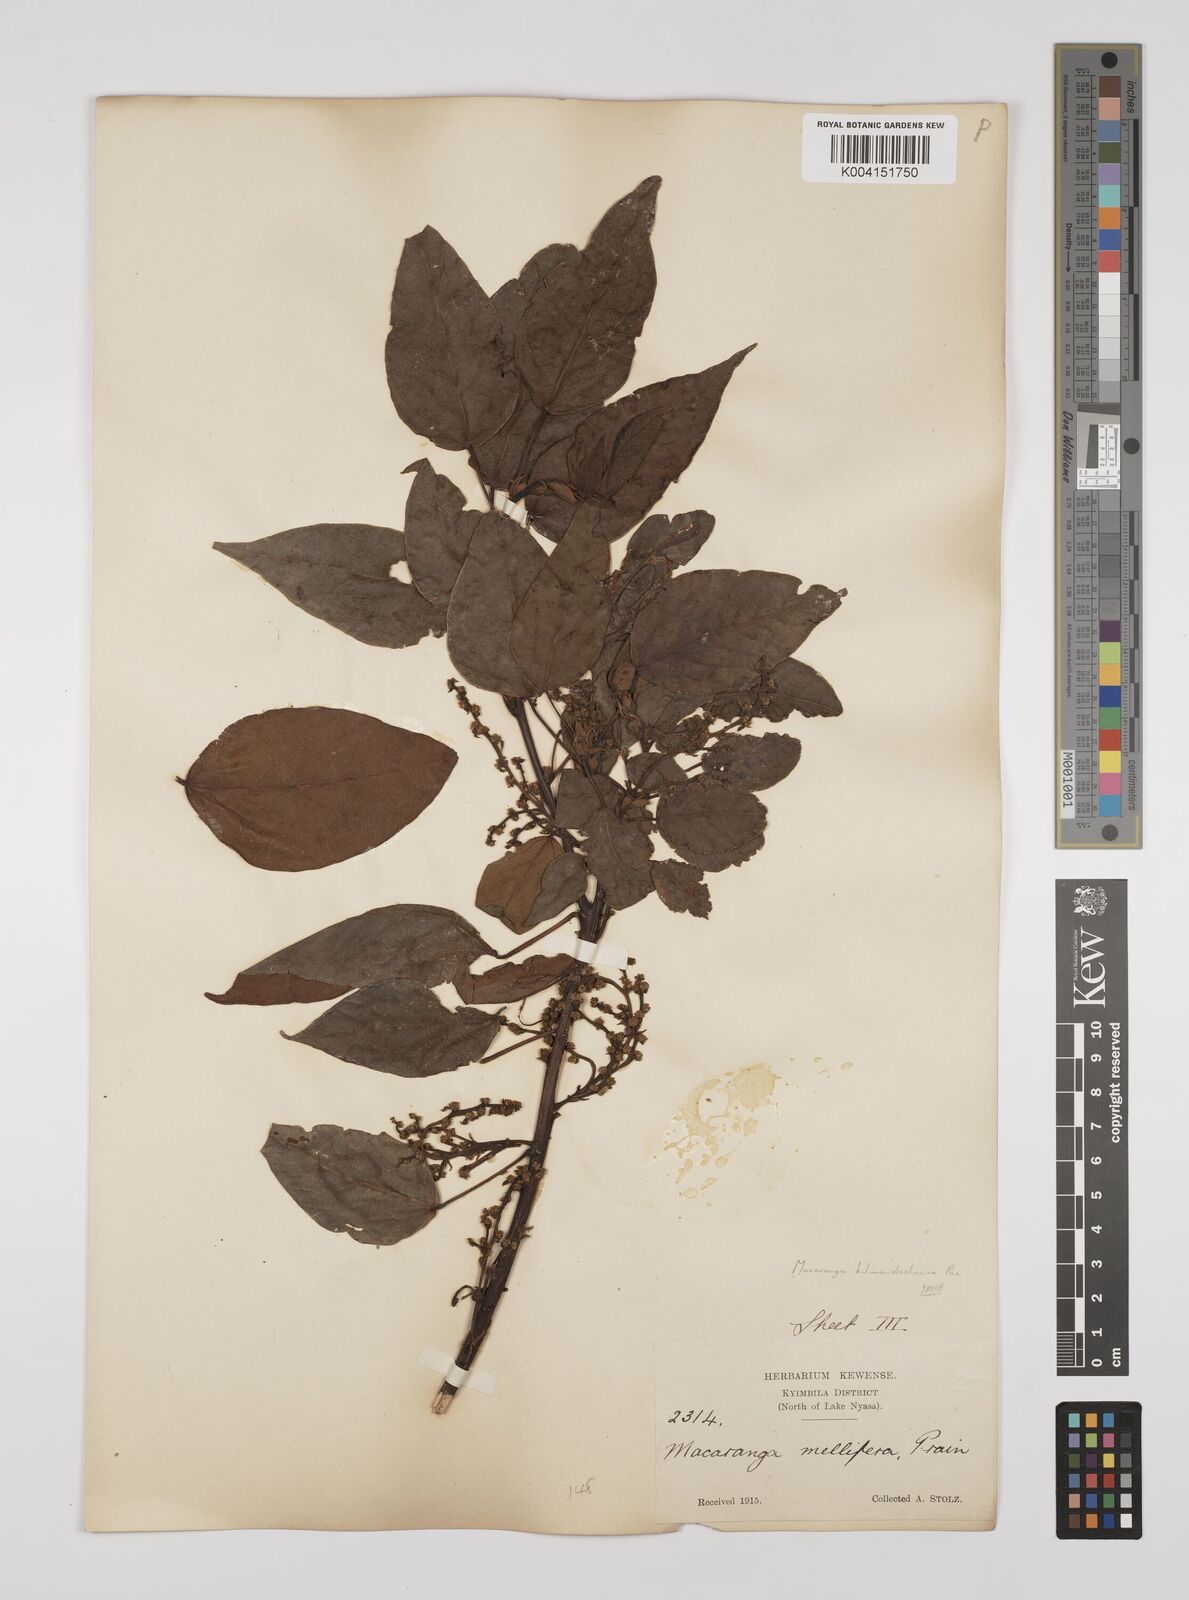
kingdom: Plantae
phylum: Tracheophyta
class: Magnoliopsida
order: Malpighiales
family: Euphorbiaceae
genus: Macaranga
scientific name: Macaranga kilimandscharica
